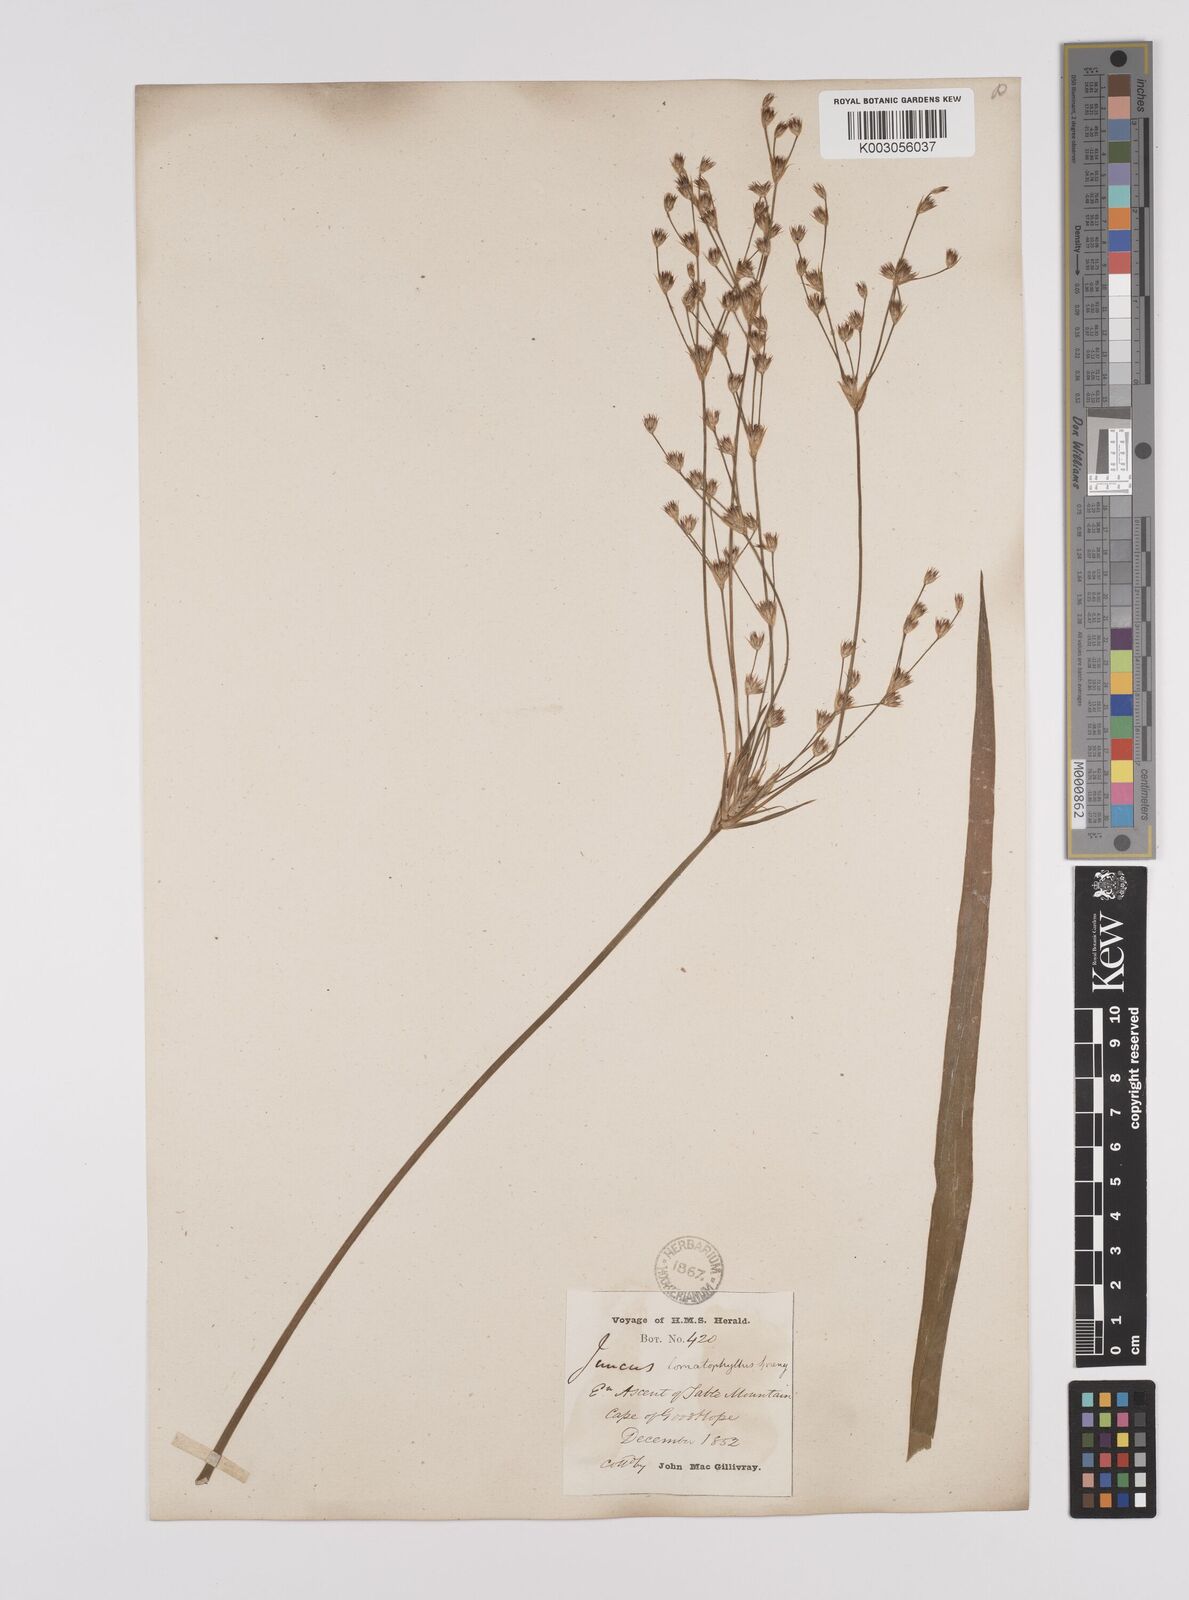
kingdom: Plantae
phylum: Tracheophyta
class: Liliopsida
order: Poales
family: Juncaceae
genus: Juncus
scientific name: Juncus lomatophyllus
